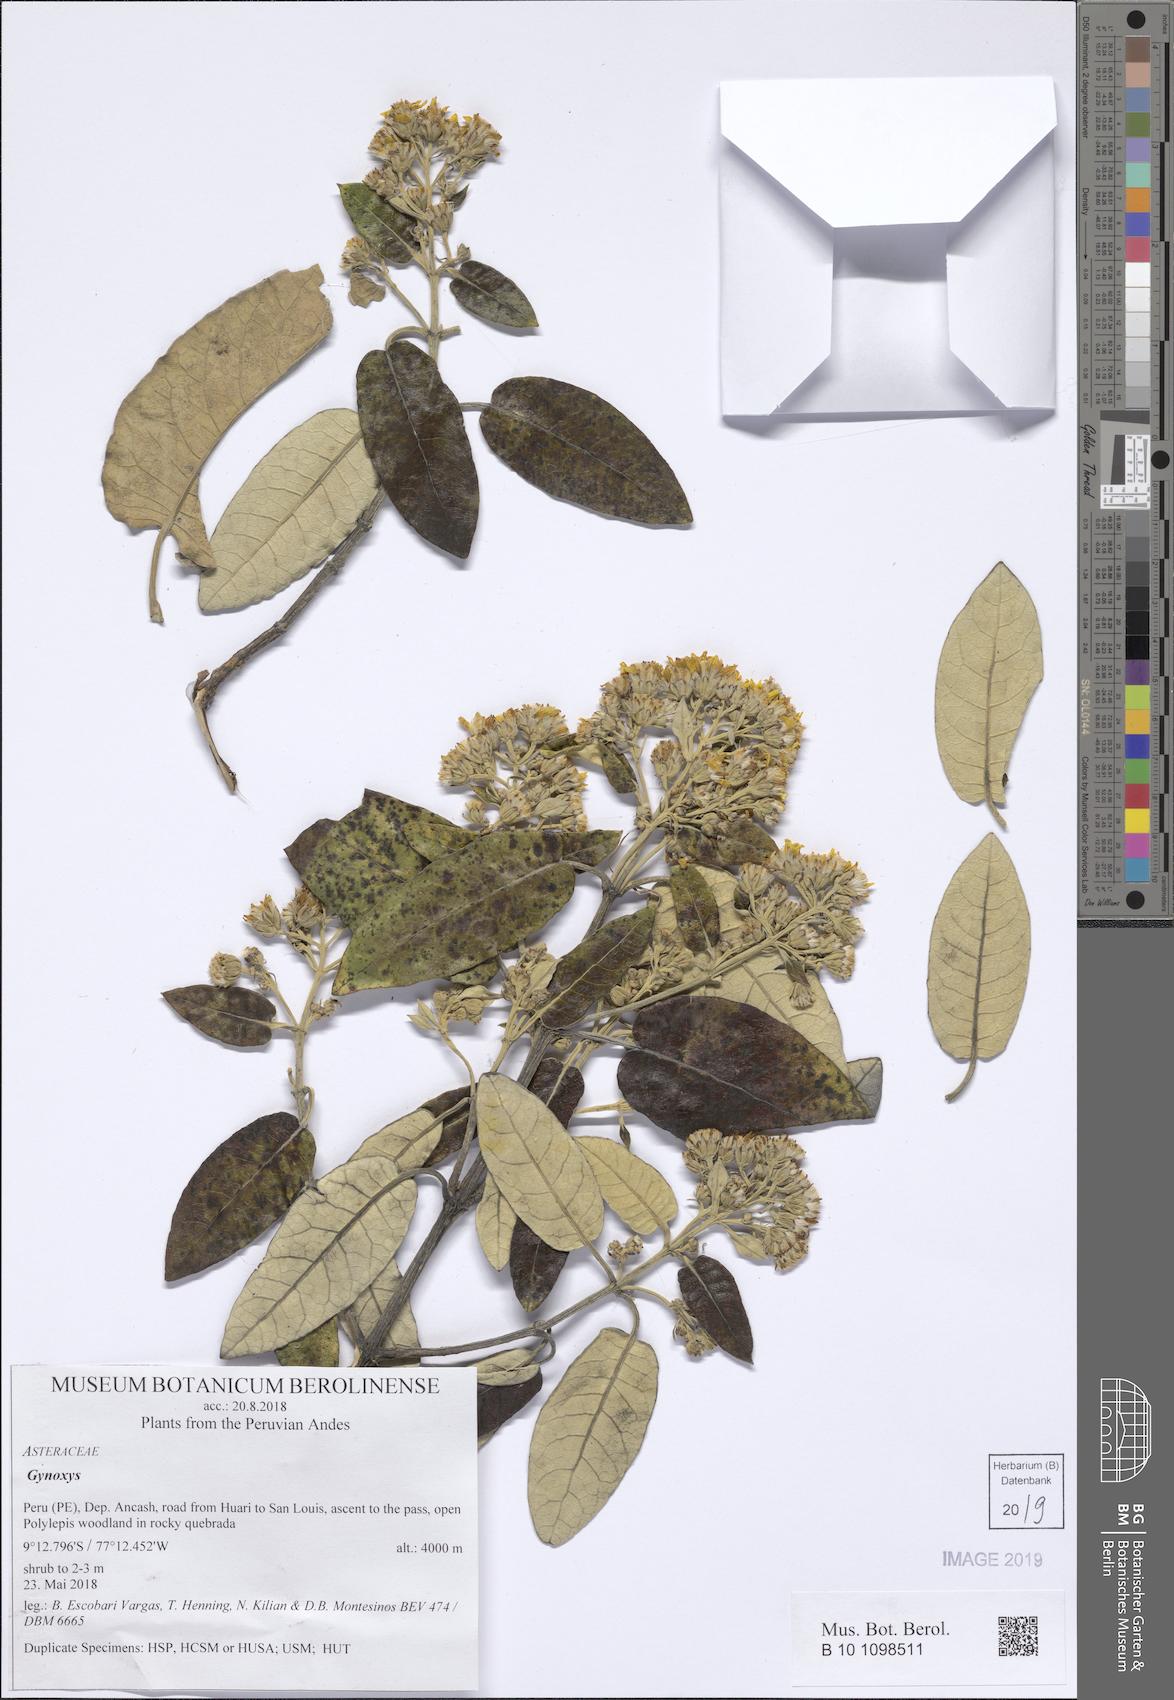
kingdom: Plantae
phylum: Tracheophyta
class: Magnoliopsida
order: Asterales
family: Asteraceae
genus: Gynoxys
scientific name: Gynoxys
